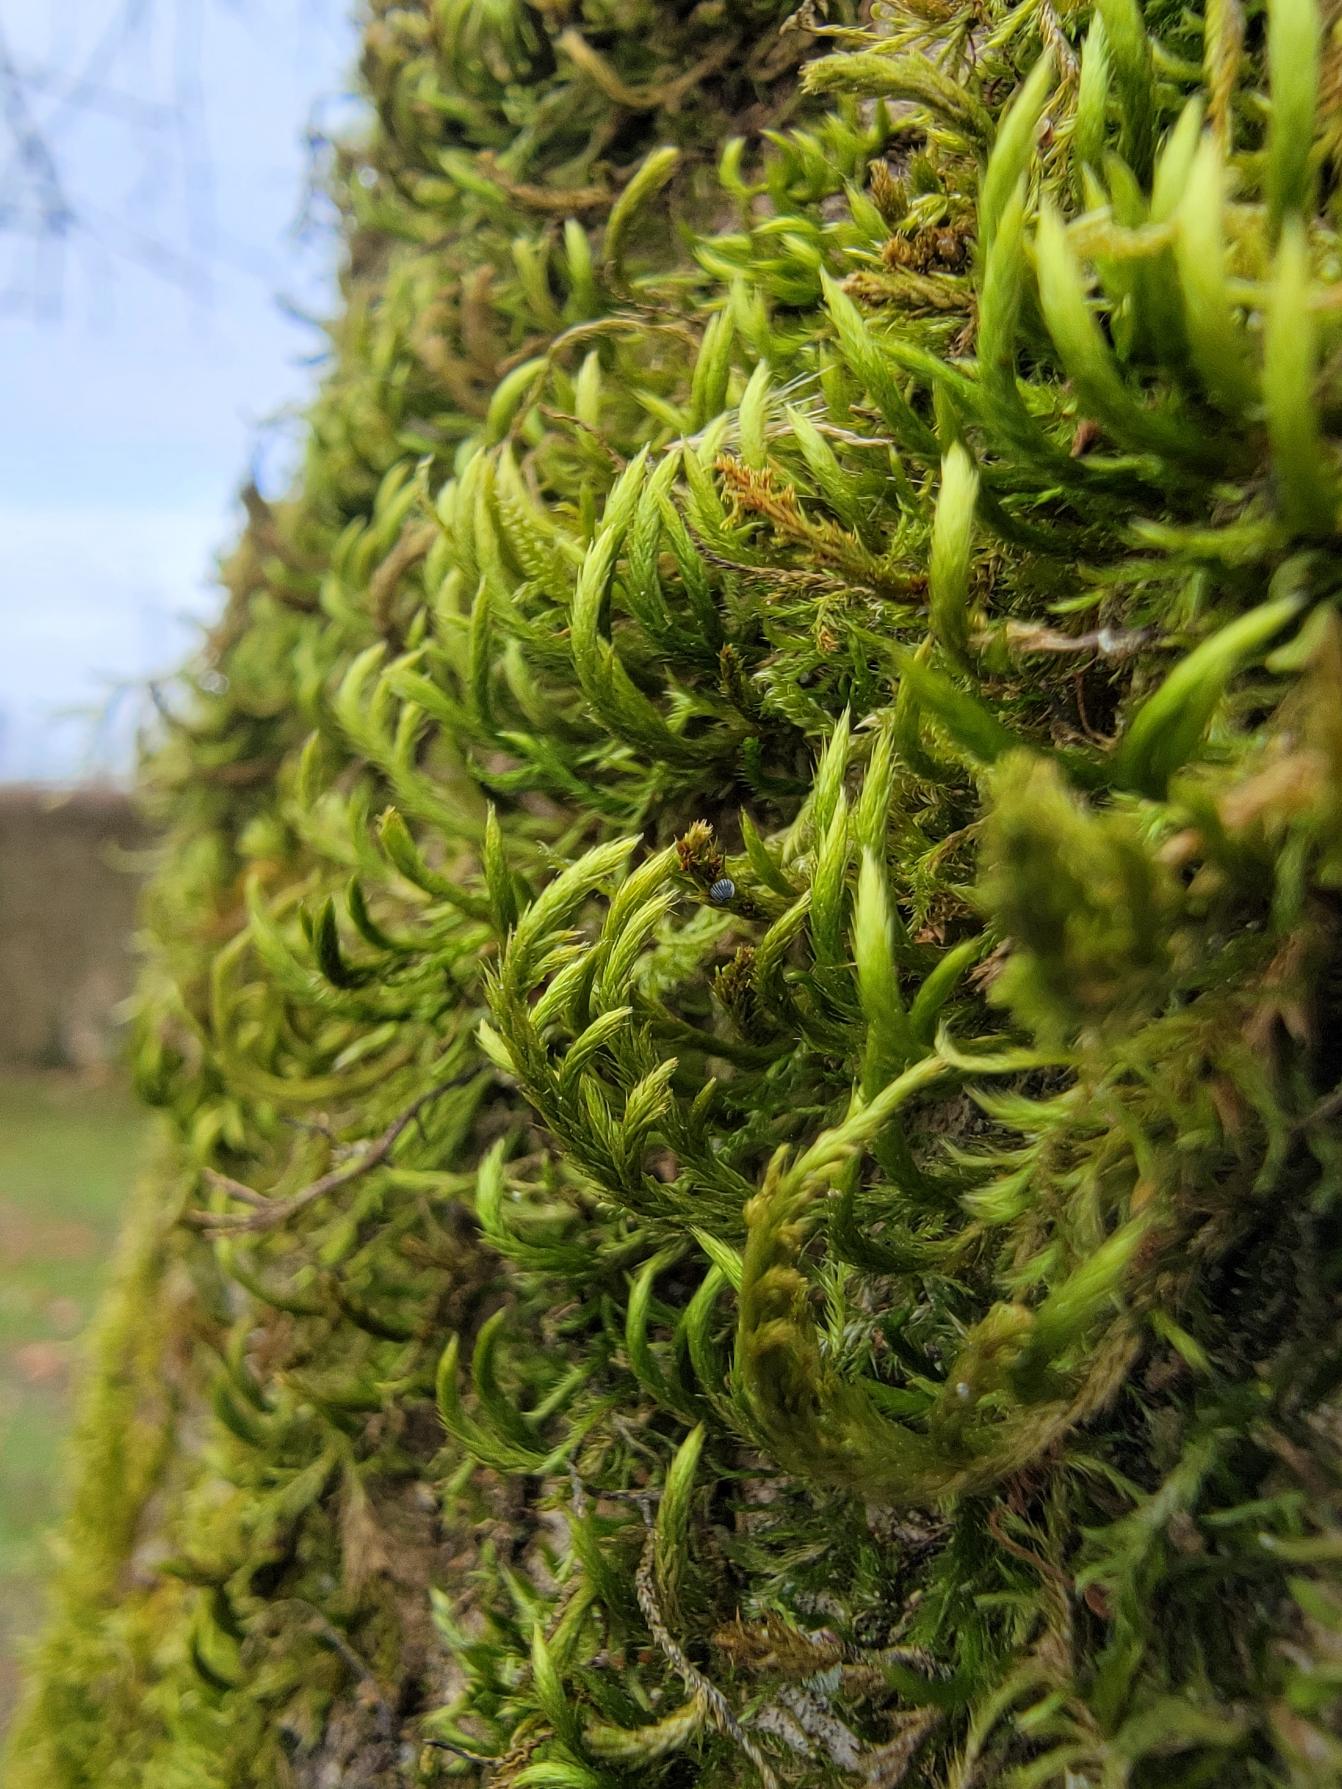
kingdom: Plantae
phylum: Bryophyta
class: Bryopsida
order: Hypnales
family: Leucodontaceae
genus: Leucodon
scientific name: Leucodon sciuroides
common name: Egernhale-buemos
